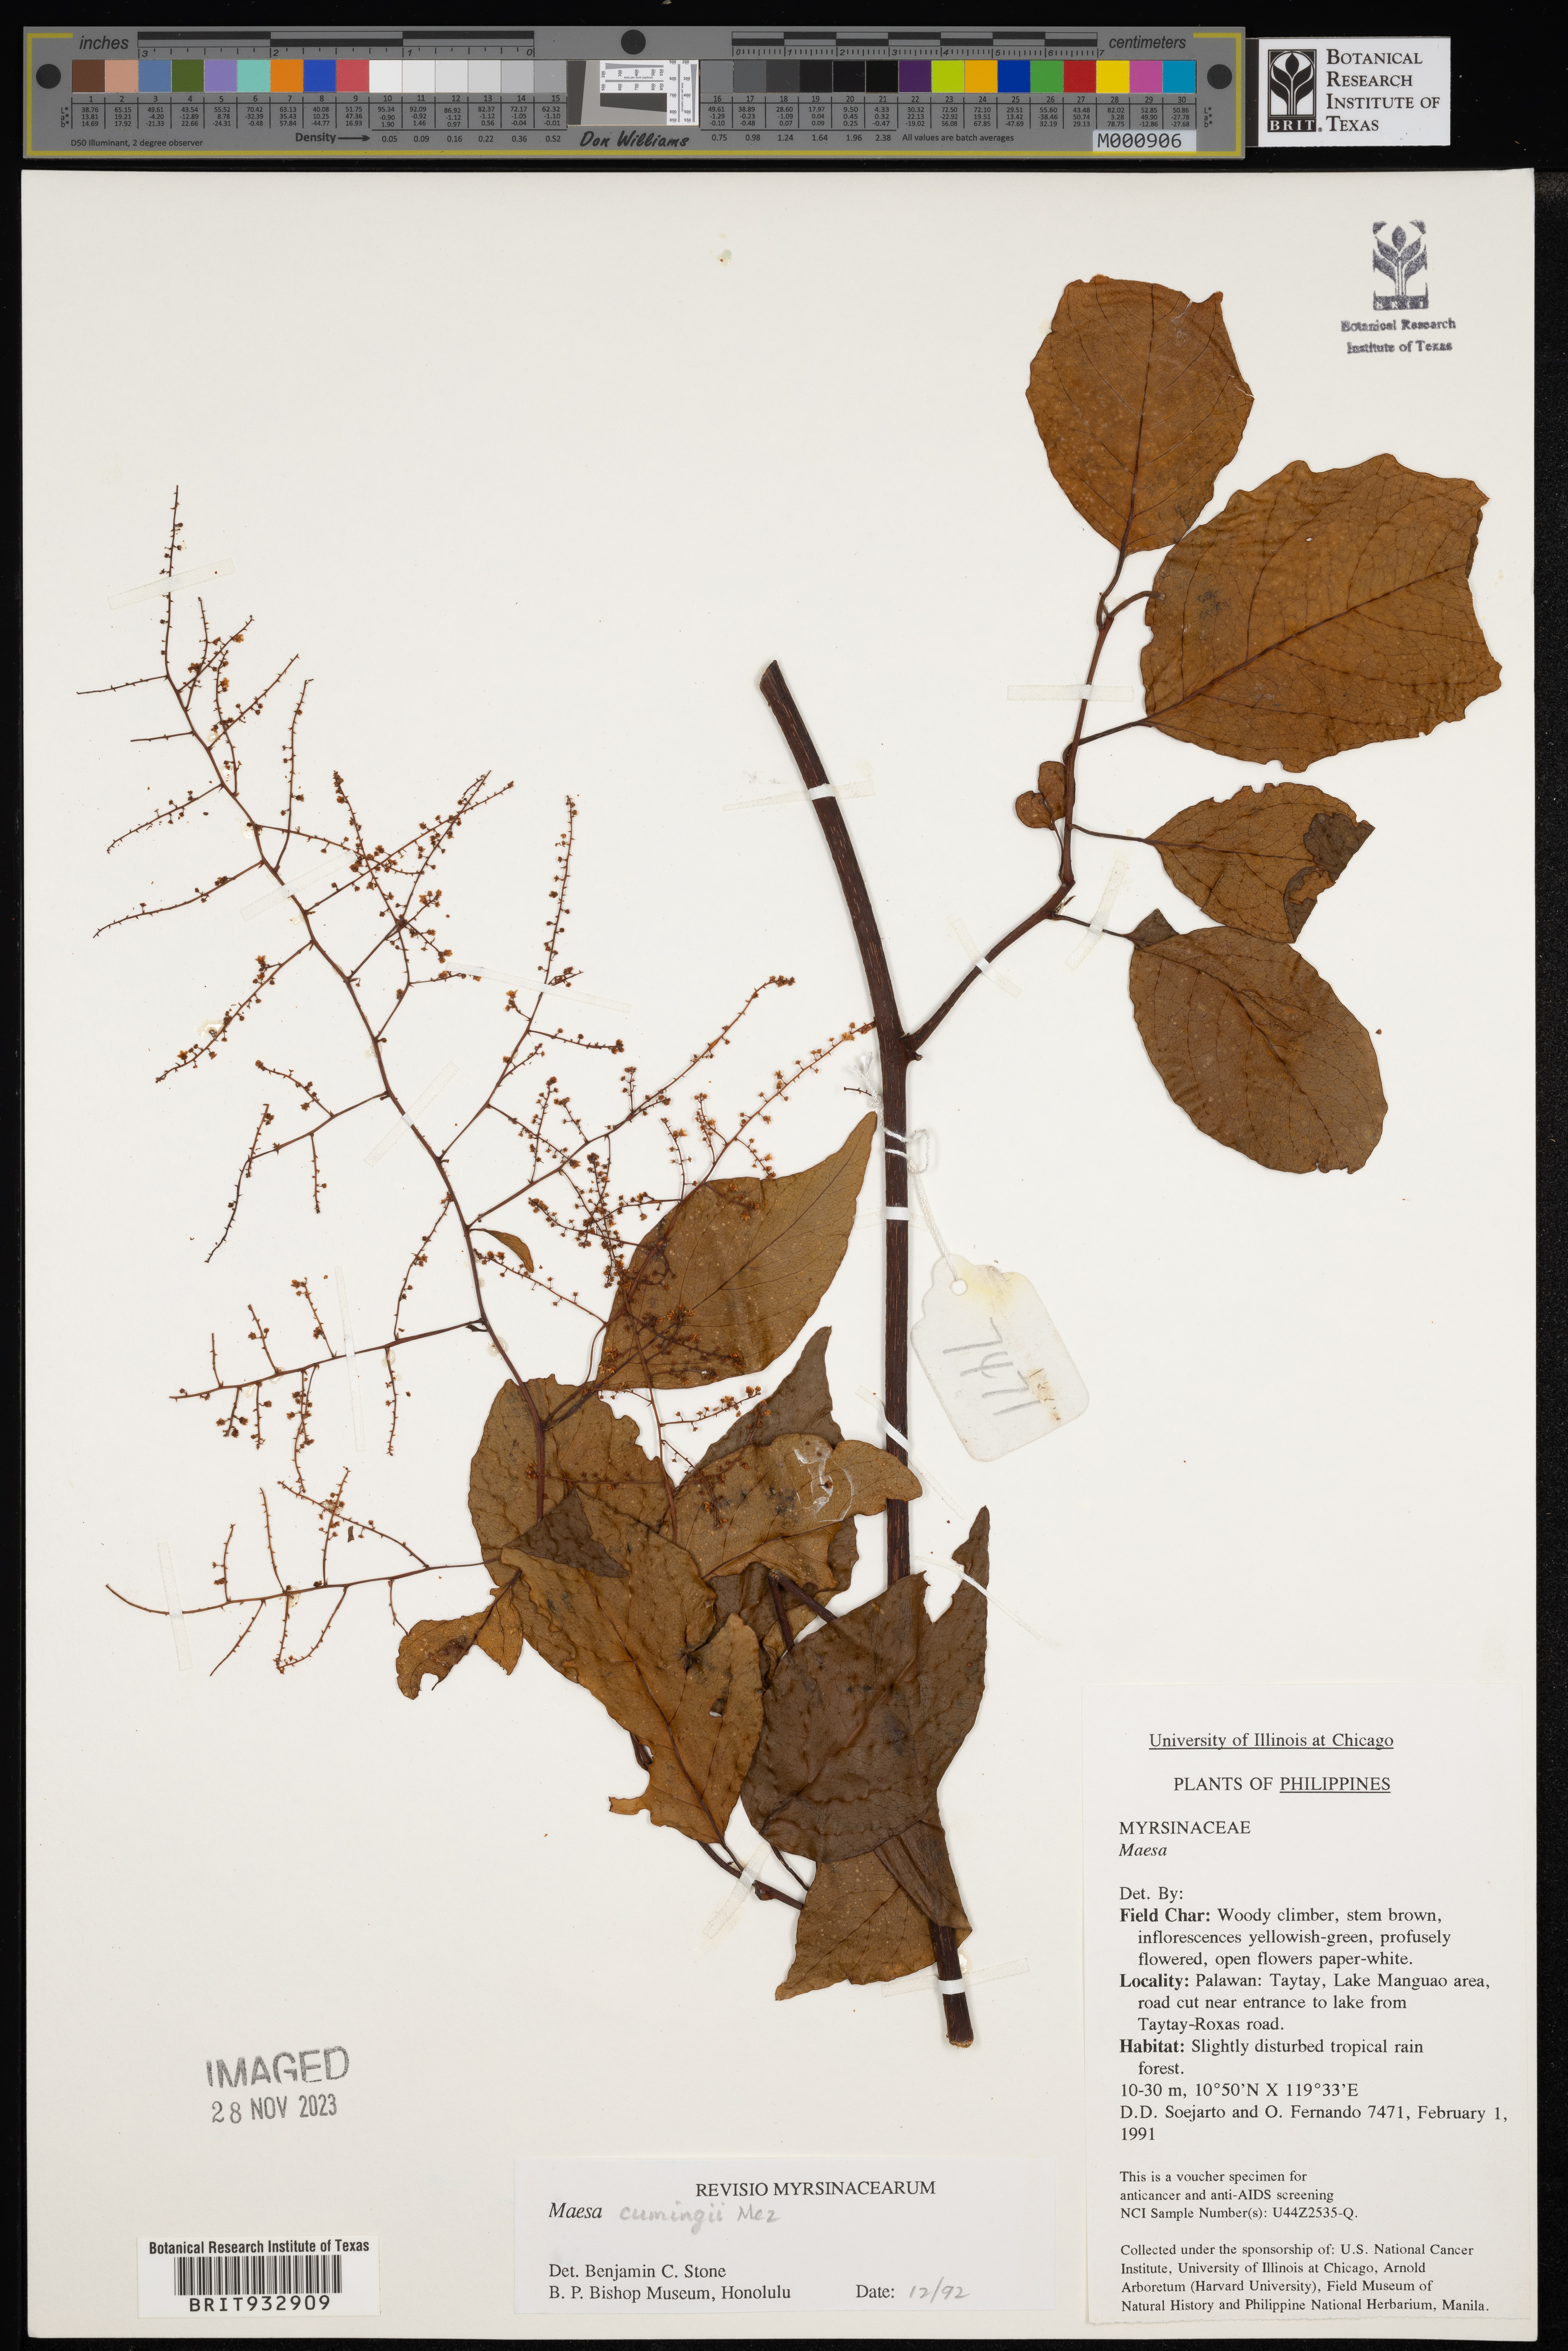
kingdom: Plantae
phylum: Tracheophyta
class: Magnoliopsida
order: Ericales
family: Primulaceae
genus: Maesa
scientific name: Maesa
